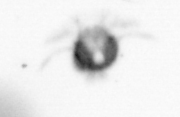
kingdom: Animalia
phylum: Arthropoda
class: Copepoda
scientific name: Copepoda
